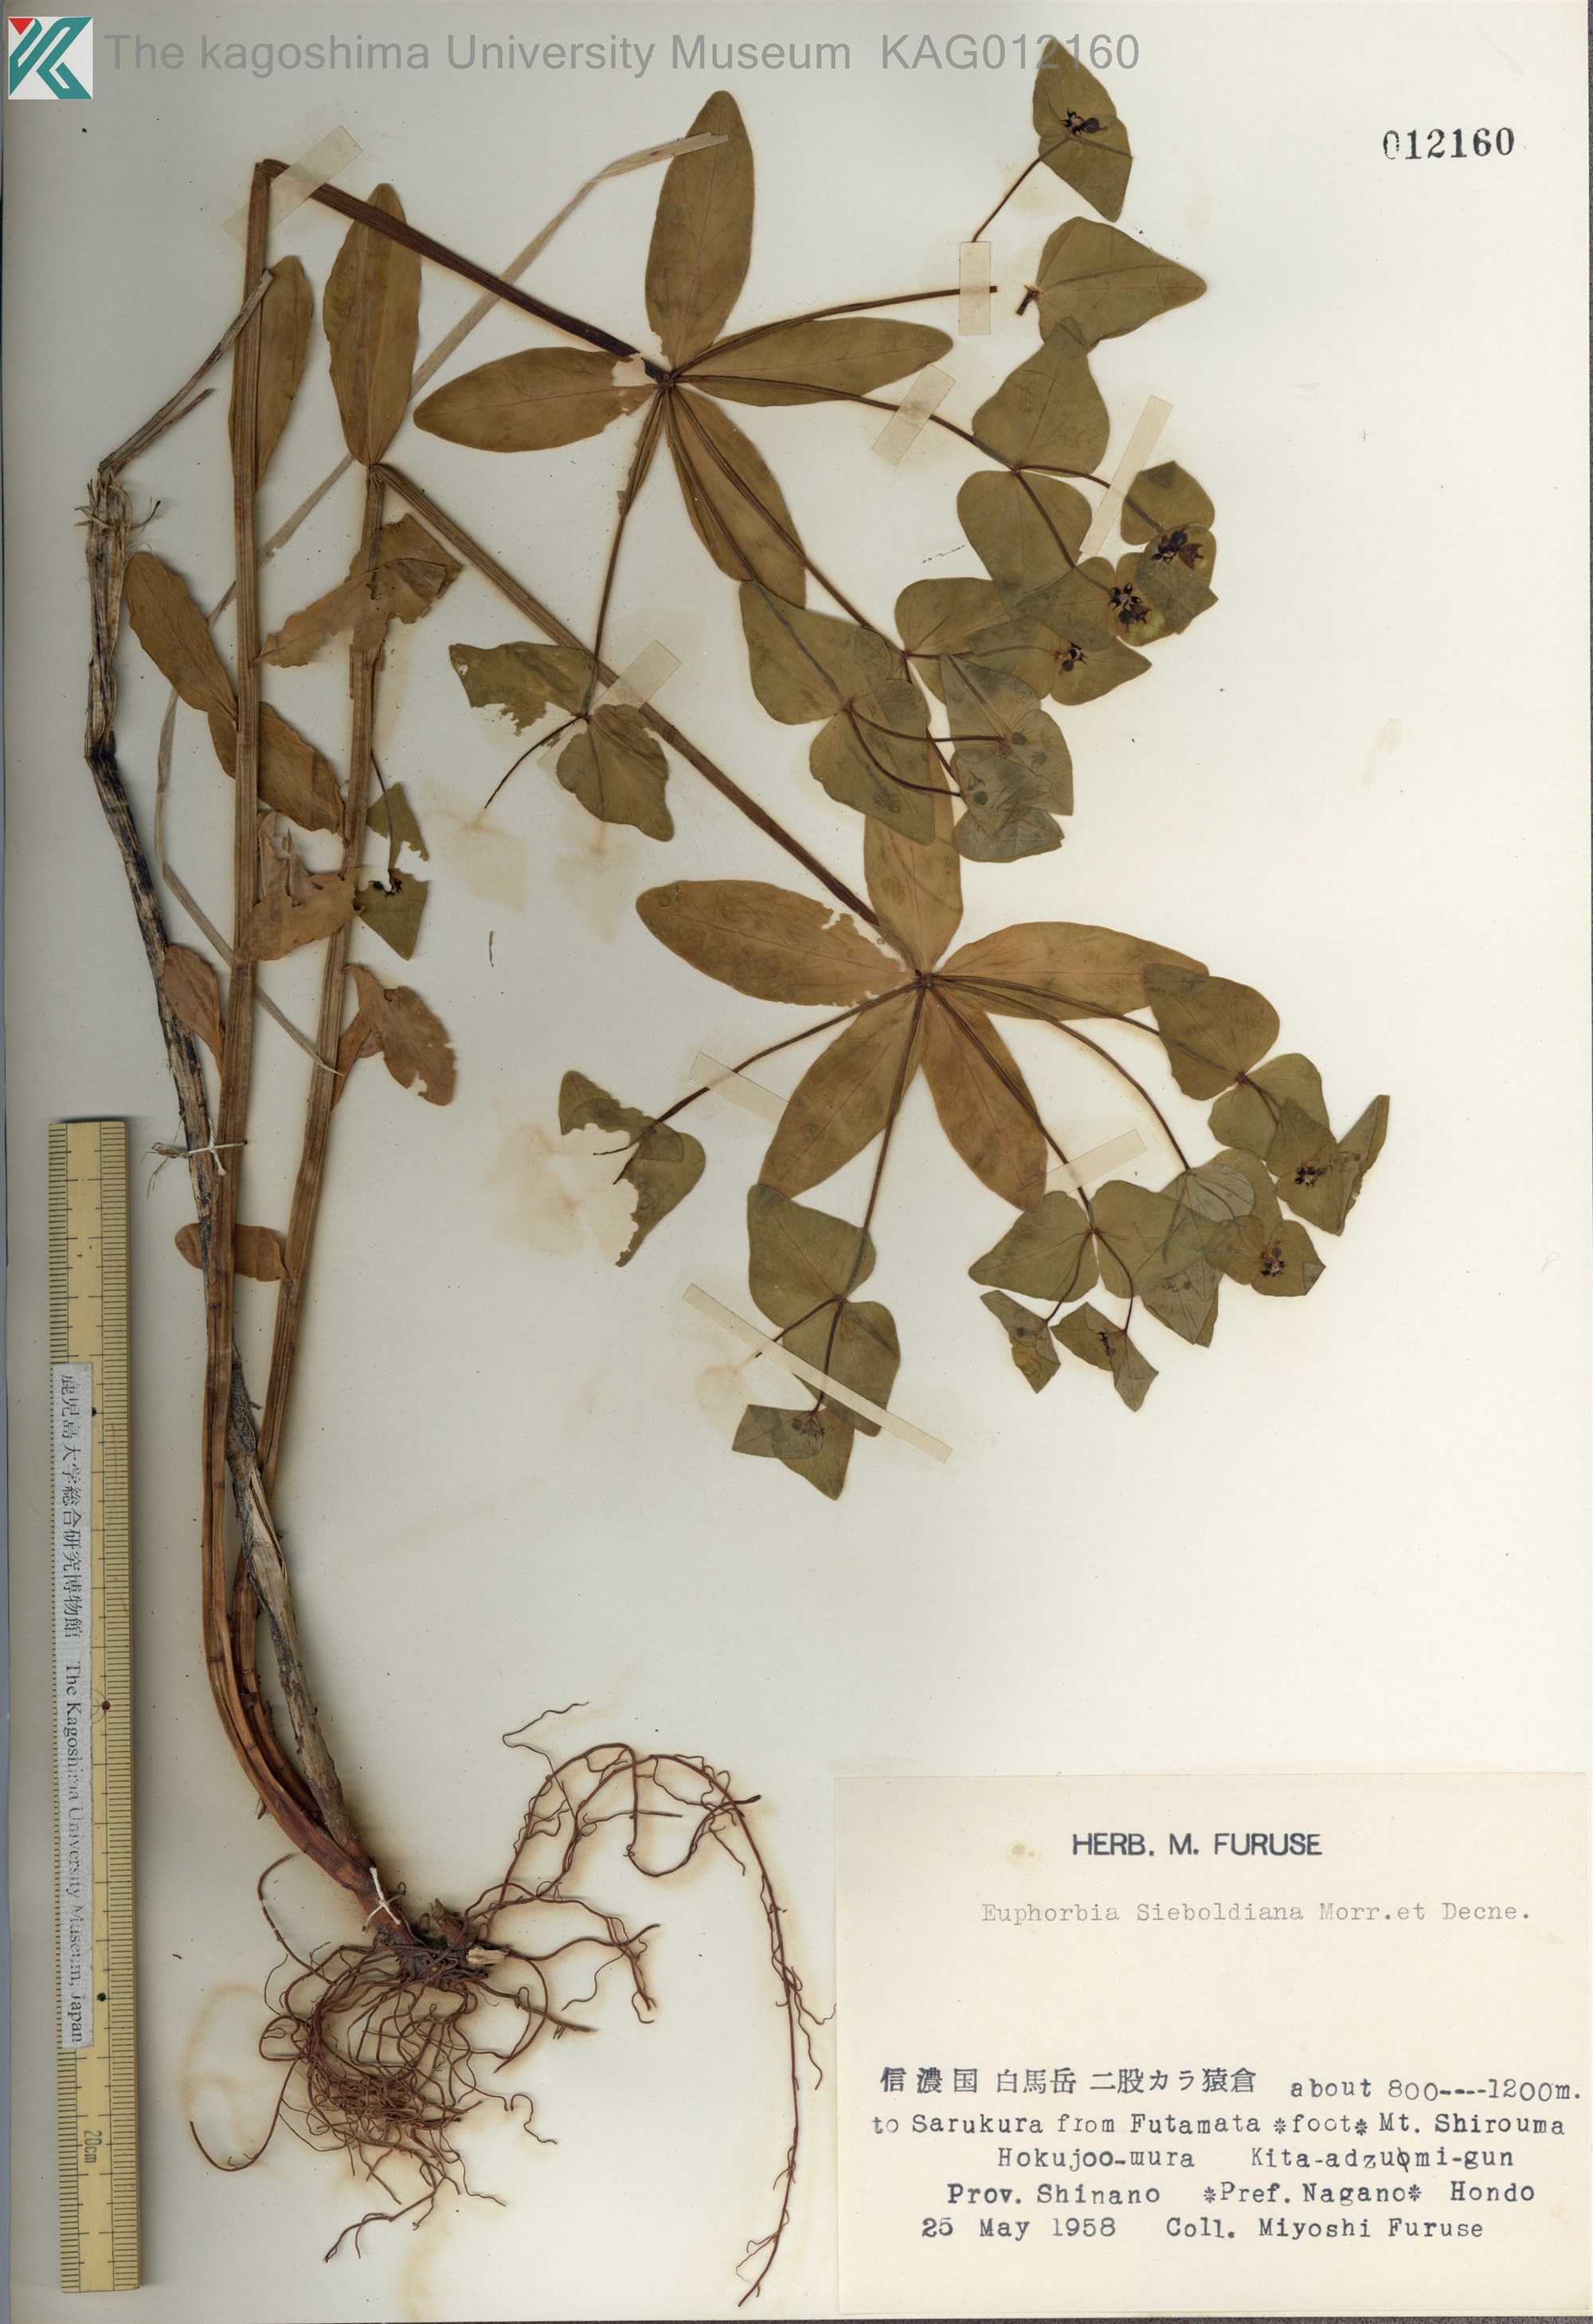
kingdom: Plantae
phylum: Tracheophyta
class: Magnoliopsida
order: Malpighiales
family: Euphorbiaceae
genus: Euphorbia
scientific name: Euphorbia sieboldiana
